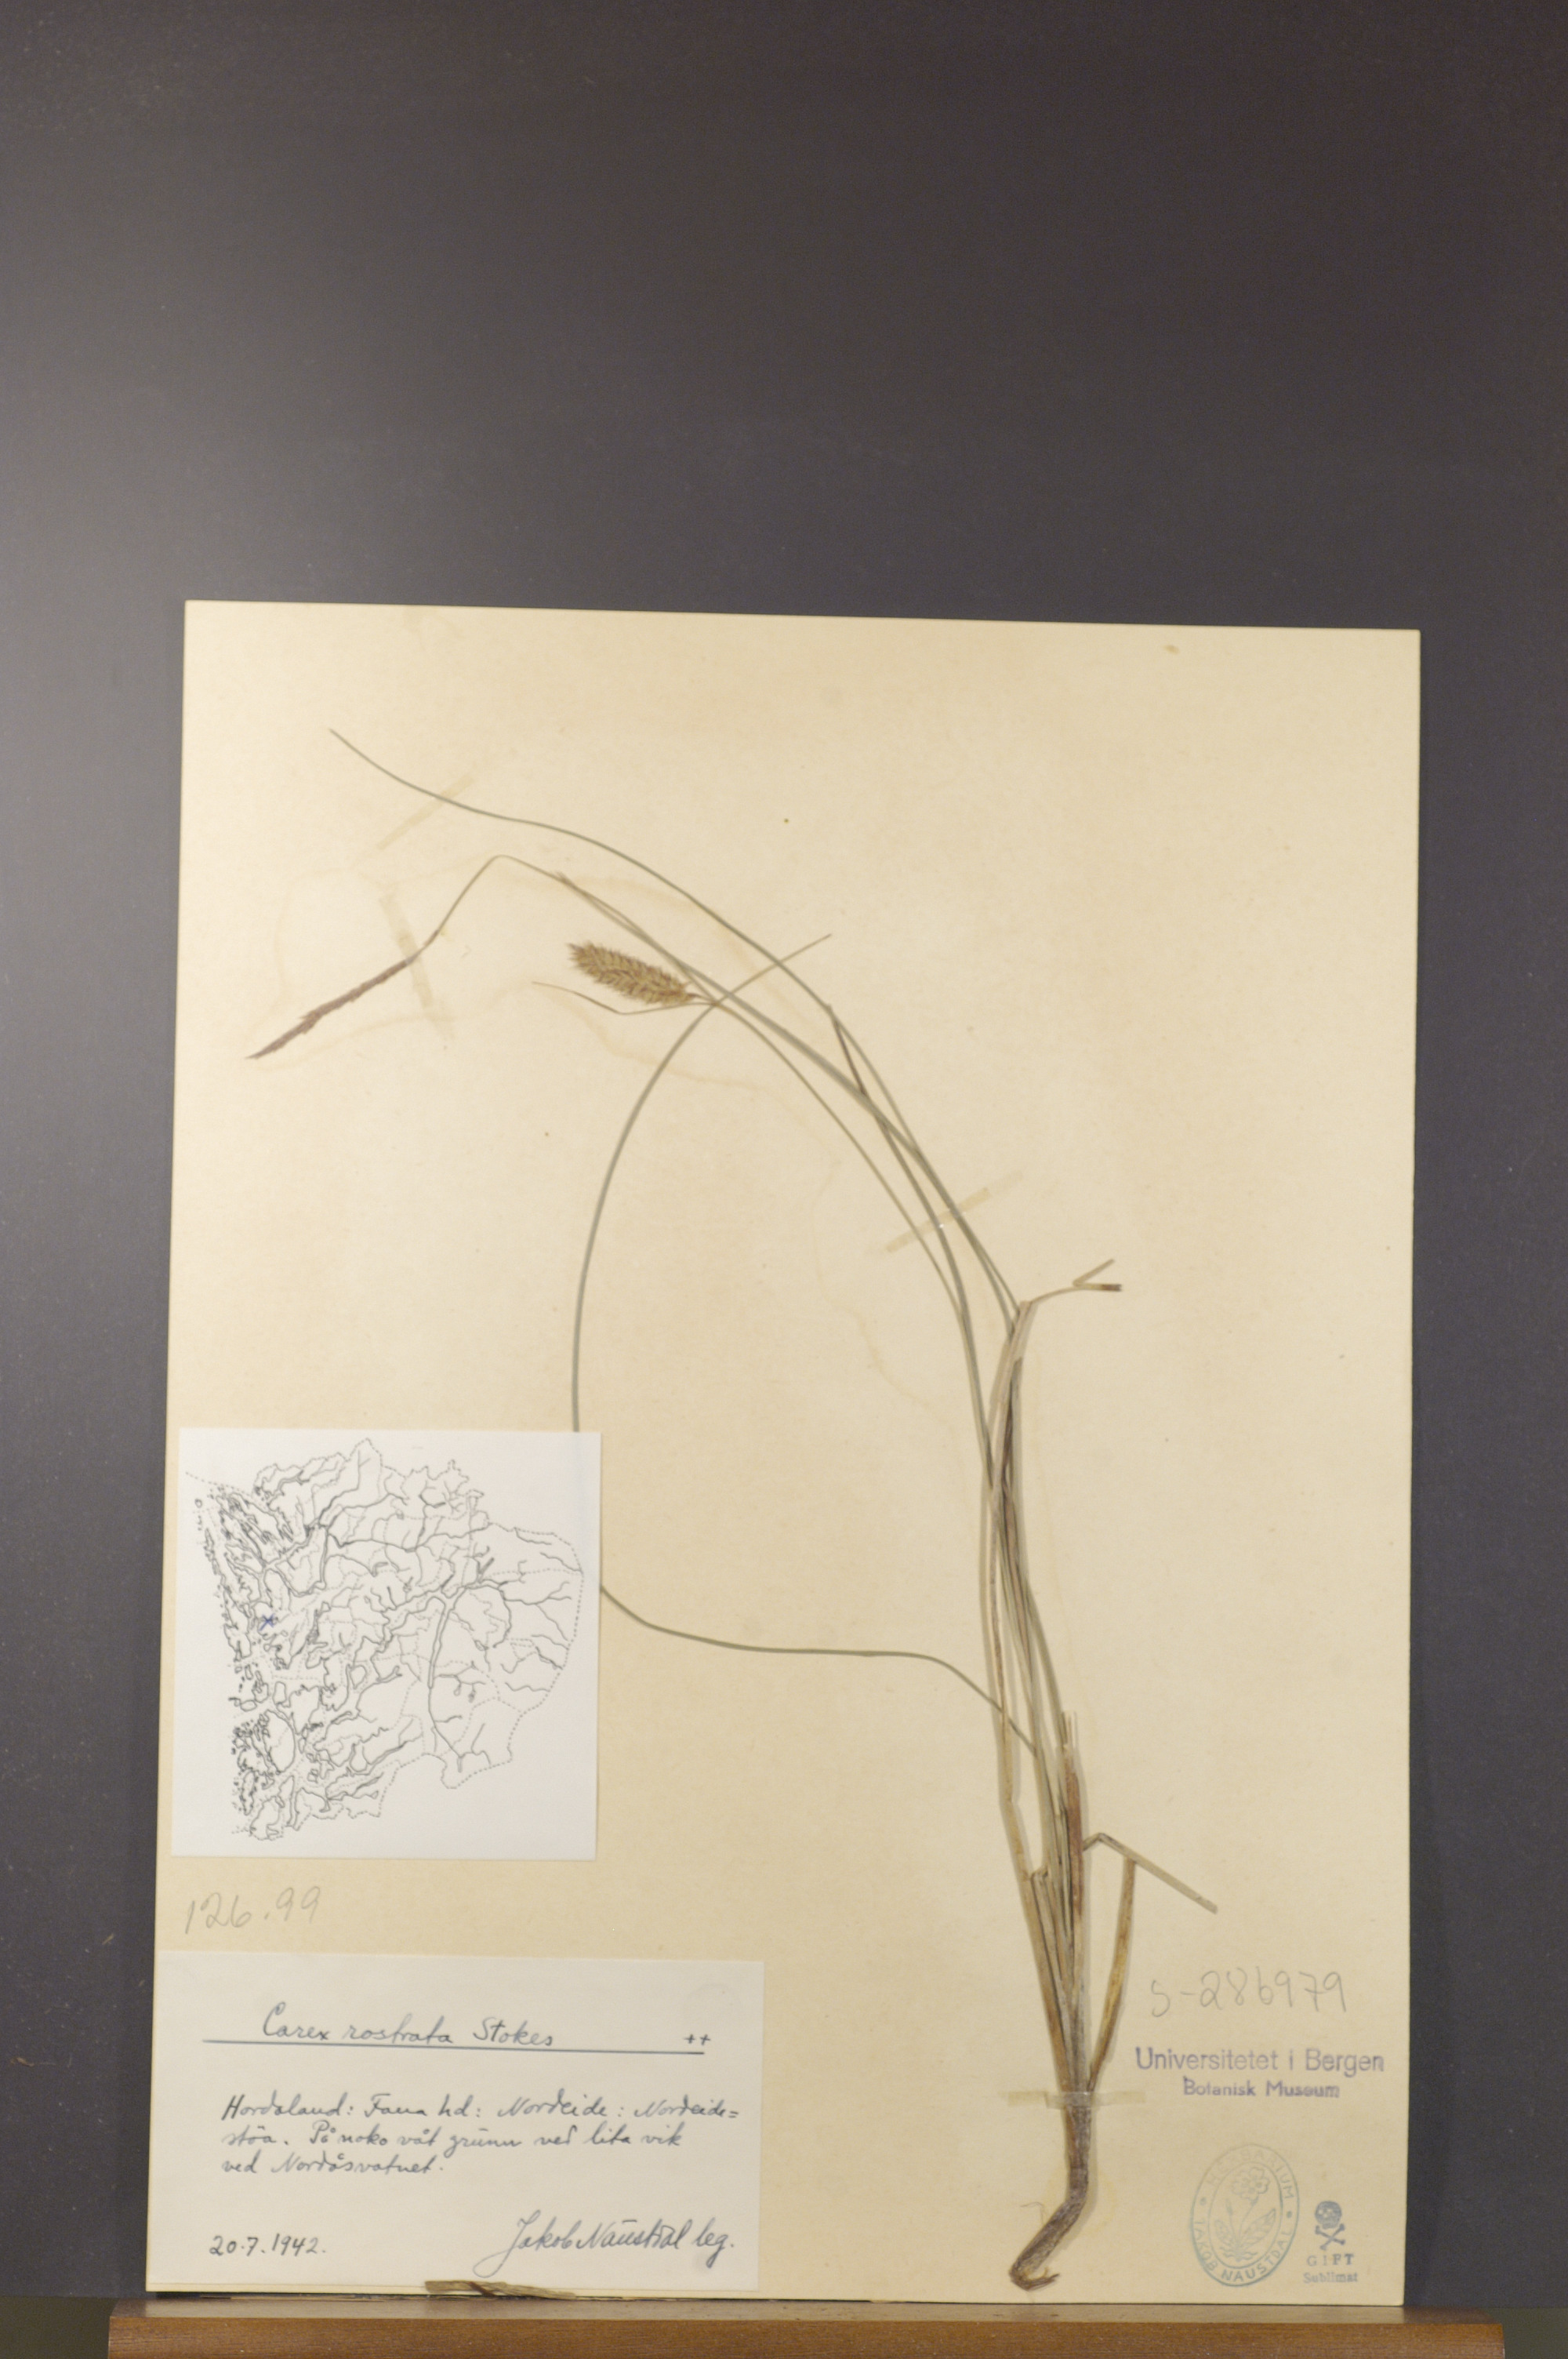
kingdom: Plantae
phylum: Tracheophyta
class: Liliopsida
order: Poales
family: Cyperaceae
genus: Carex
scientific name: Carex rostrata
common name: Bottle sedge
